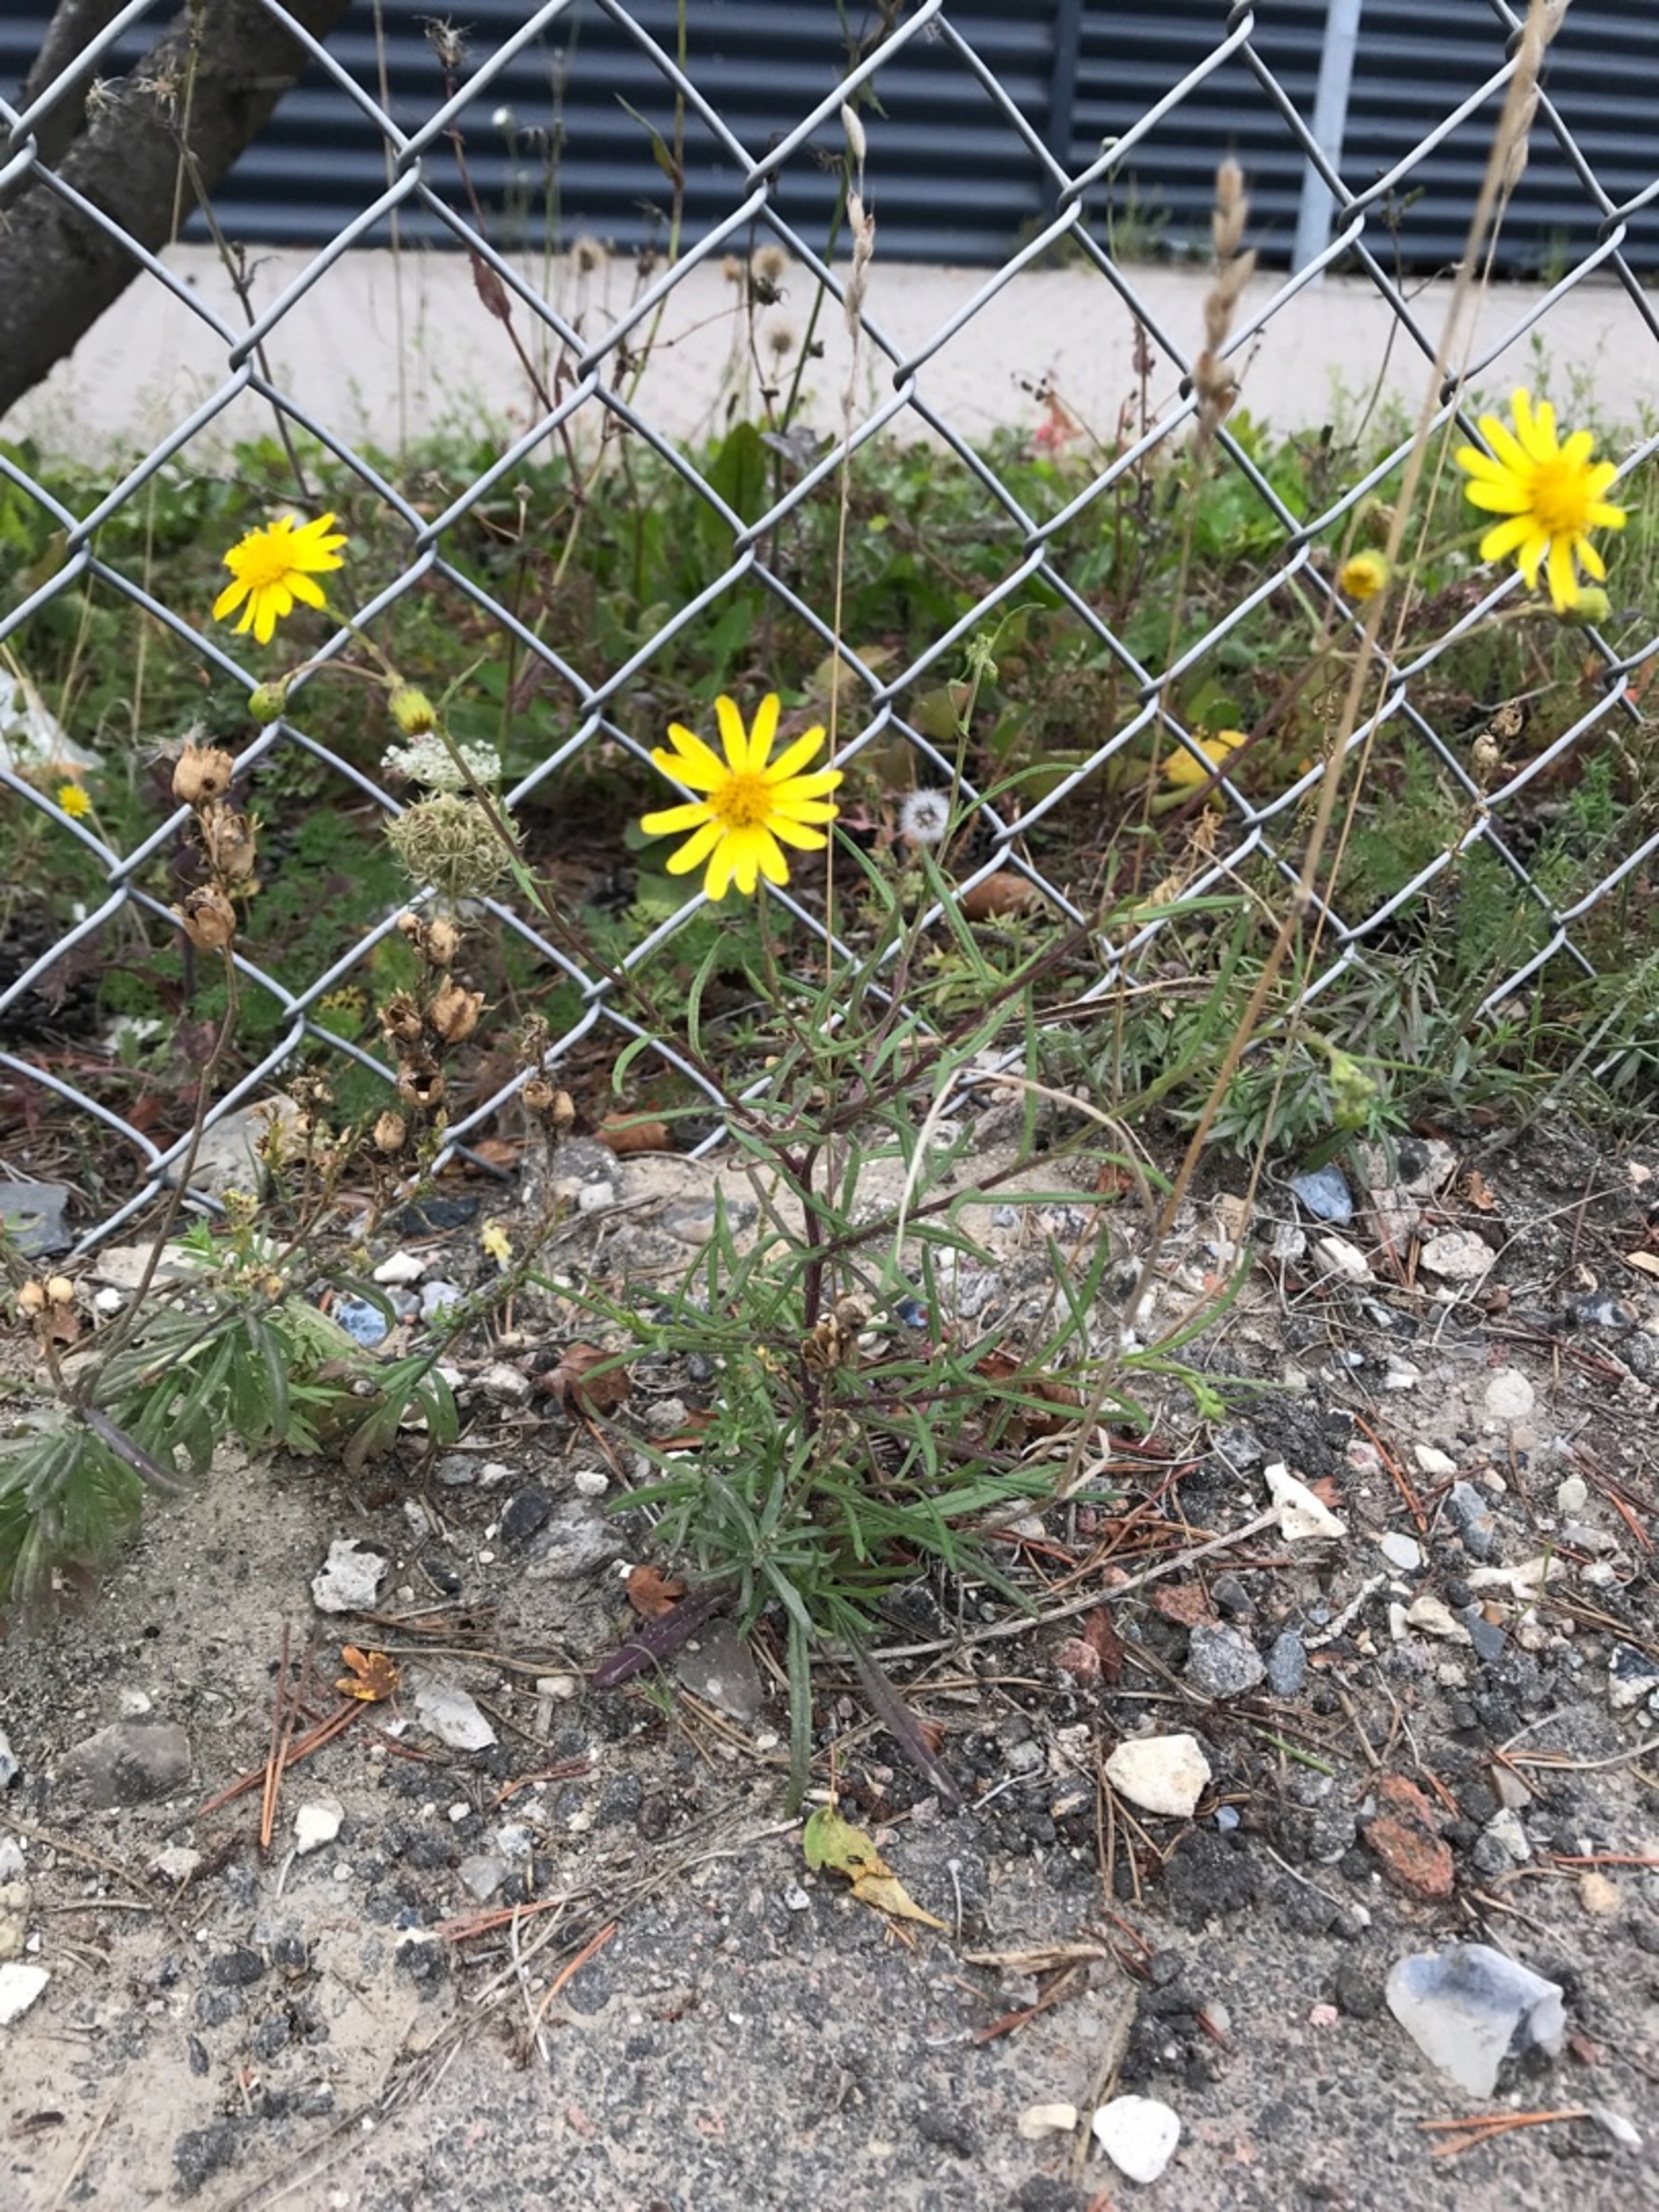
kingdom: Plantae
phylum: Tracheophyta
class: Magnoliopsida
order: Asterales
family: Asteraceae
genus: Senecio
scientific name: Senecio inaequidens
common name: Smalbladet brandbæger
